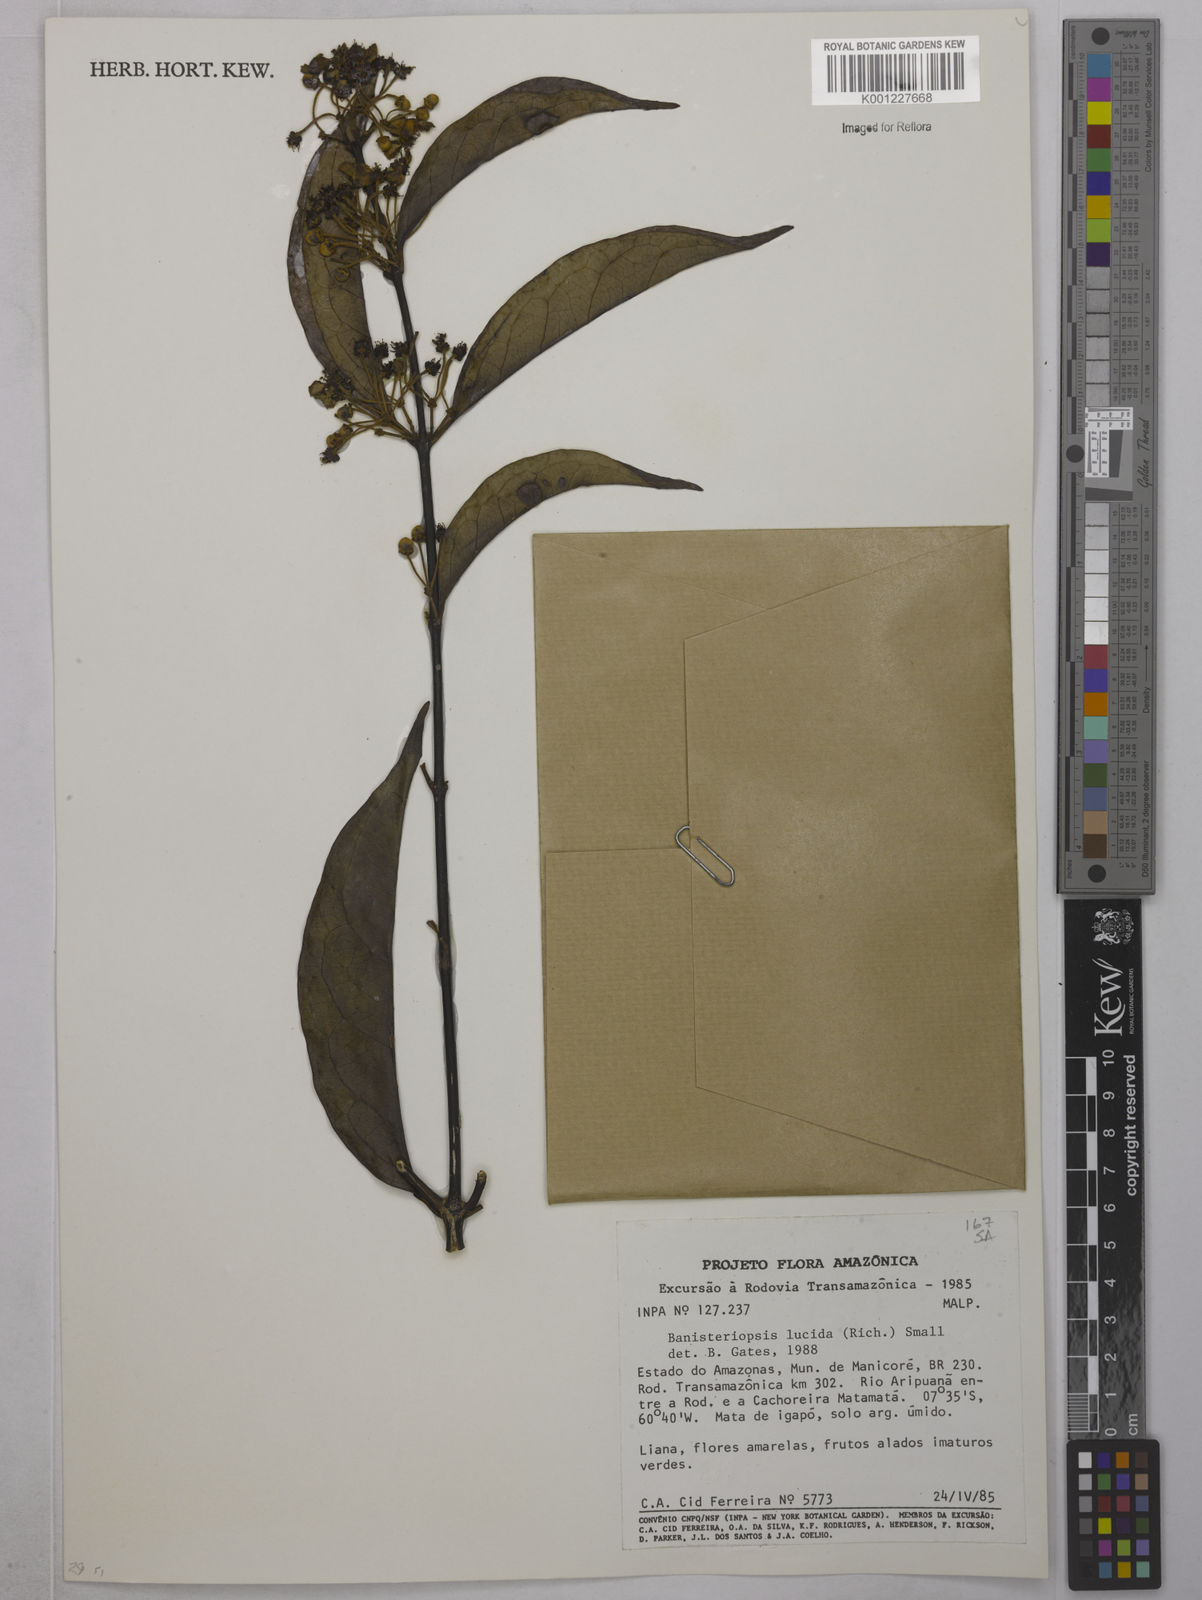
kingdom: Plantae
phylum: Tracheophyta
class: Magnoliopsida
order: Malpighiales
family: Malpighiaceae
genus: Diplopterys
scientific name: Diplopterys lucida
